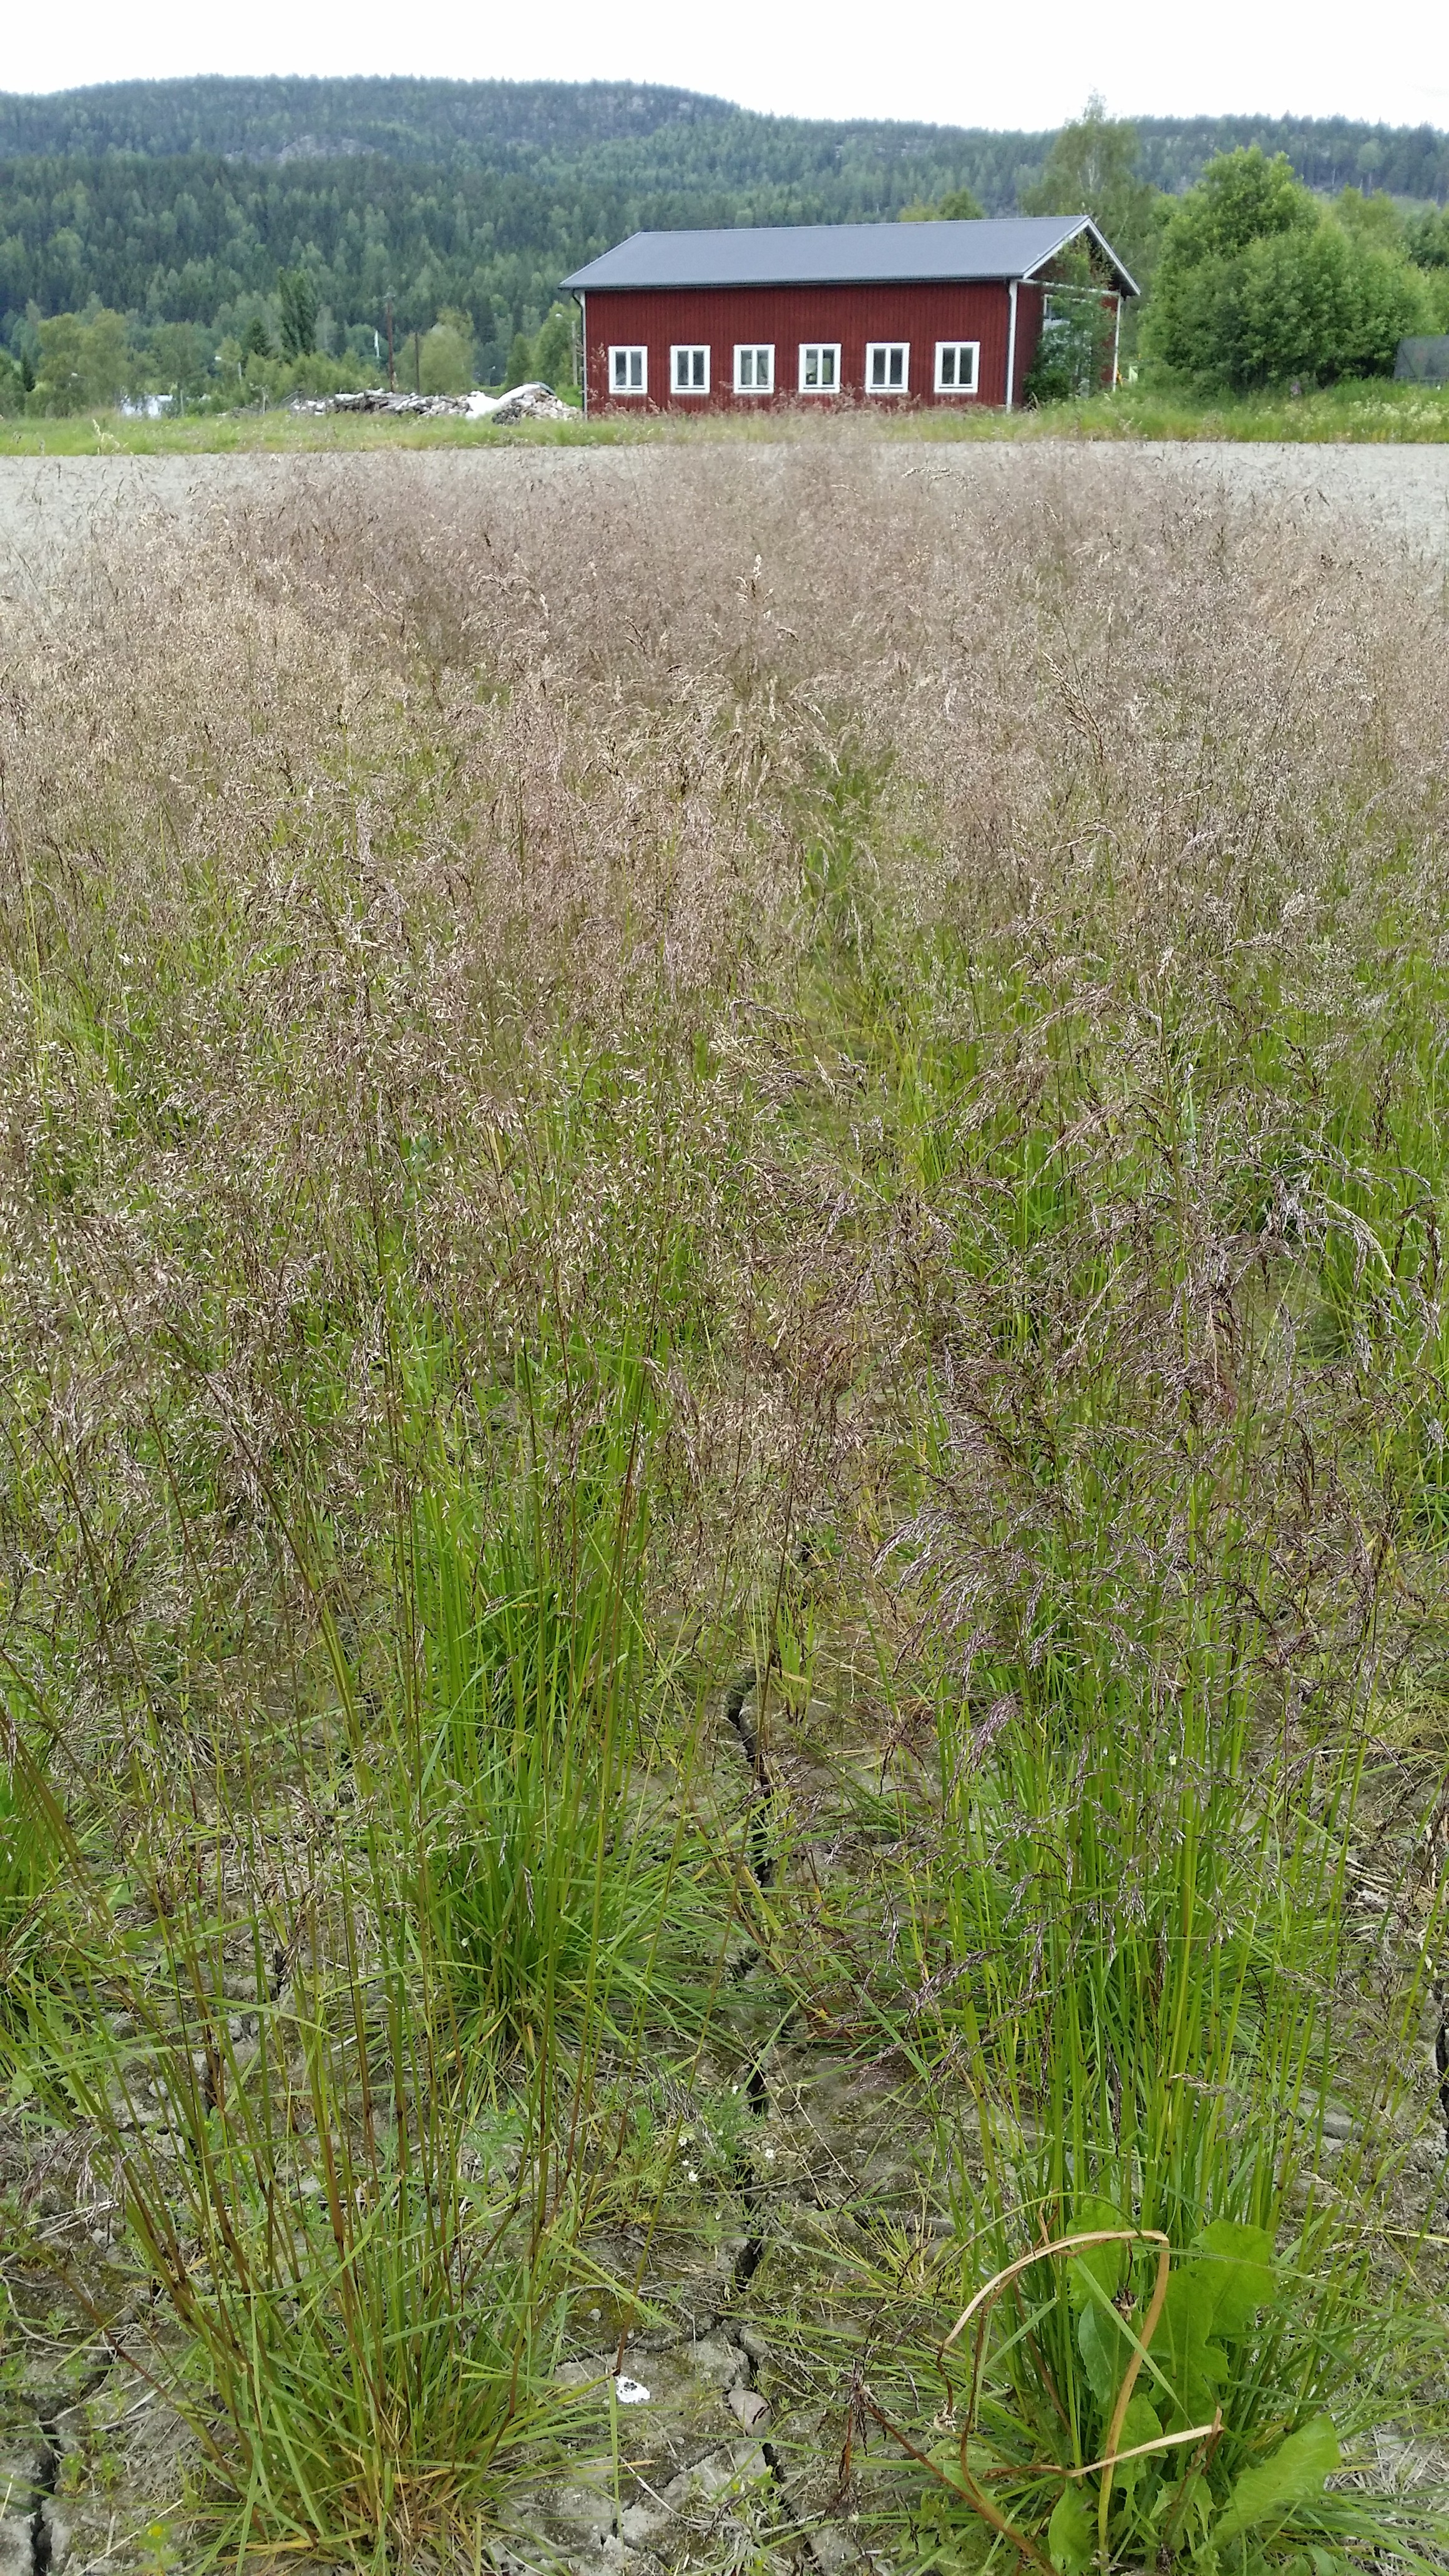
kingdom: Plantae
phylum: Tracheophyta
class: Liliopsida
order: Poales
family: Poaceae
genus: Deschampsia
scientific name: Deschampsia cespitosa
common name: Tufted hair-grass
